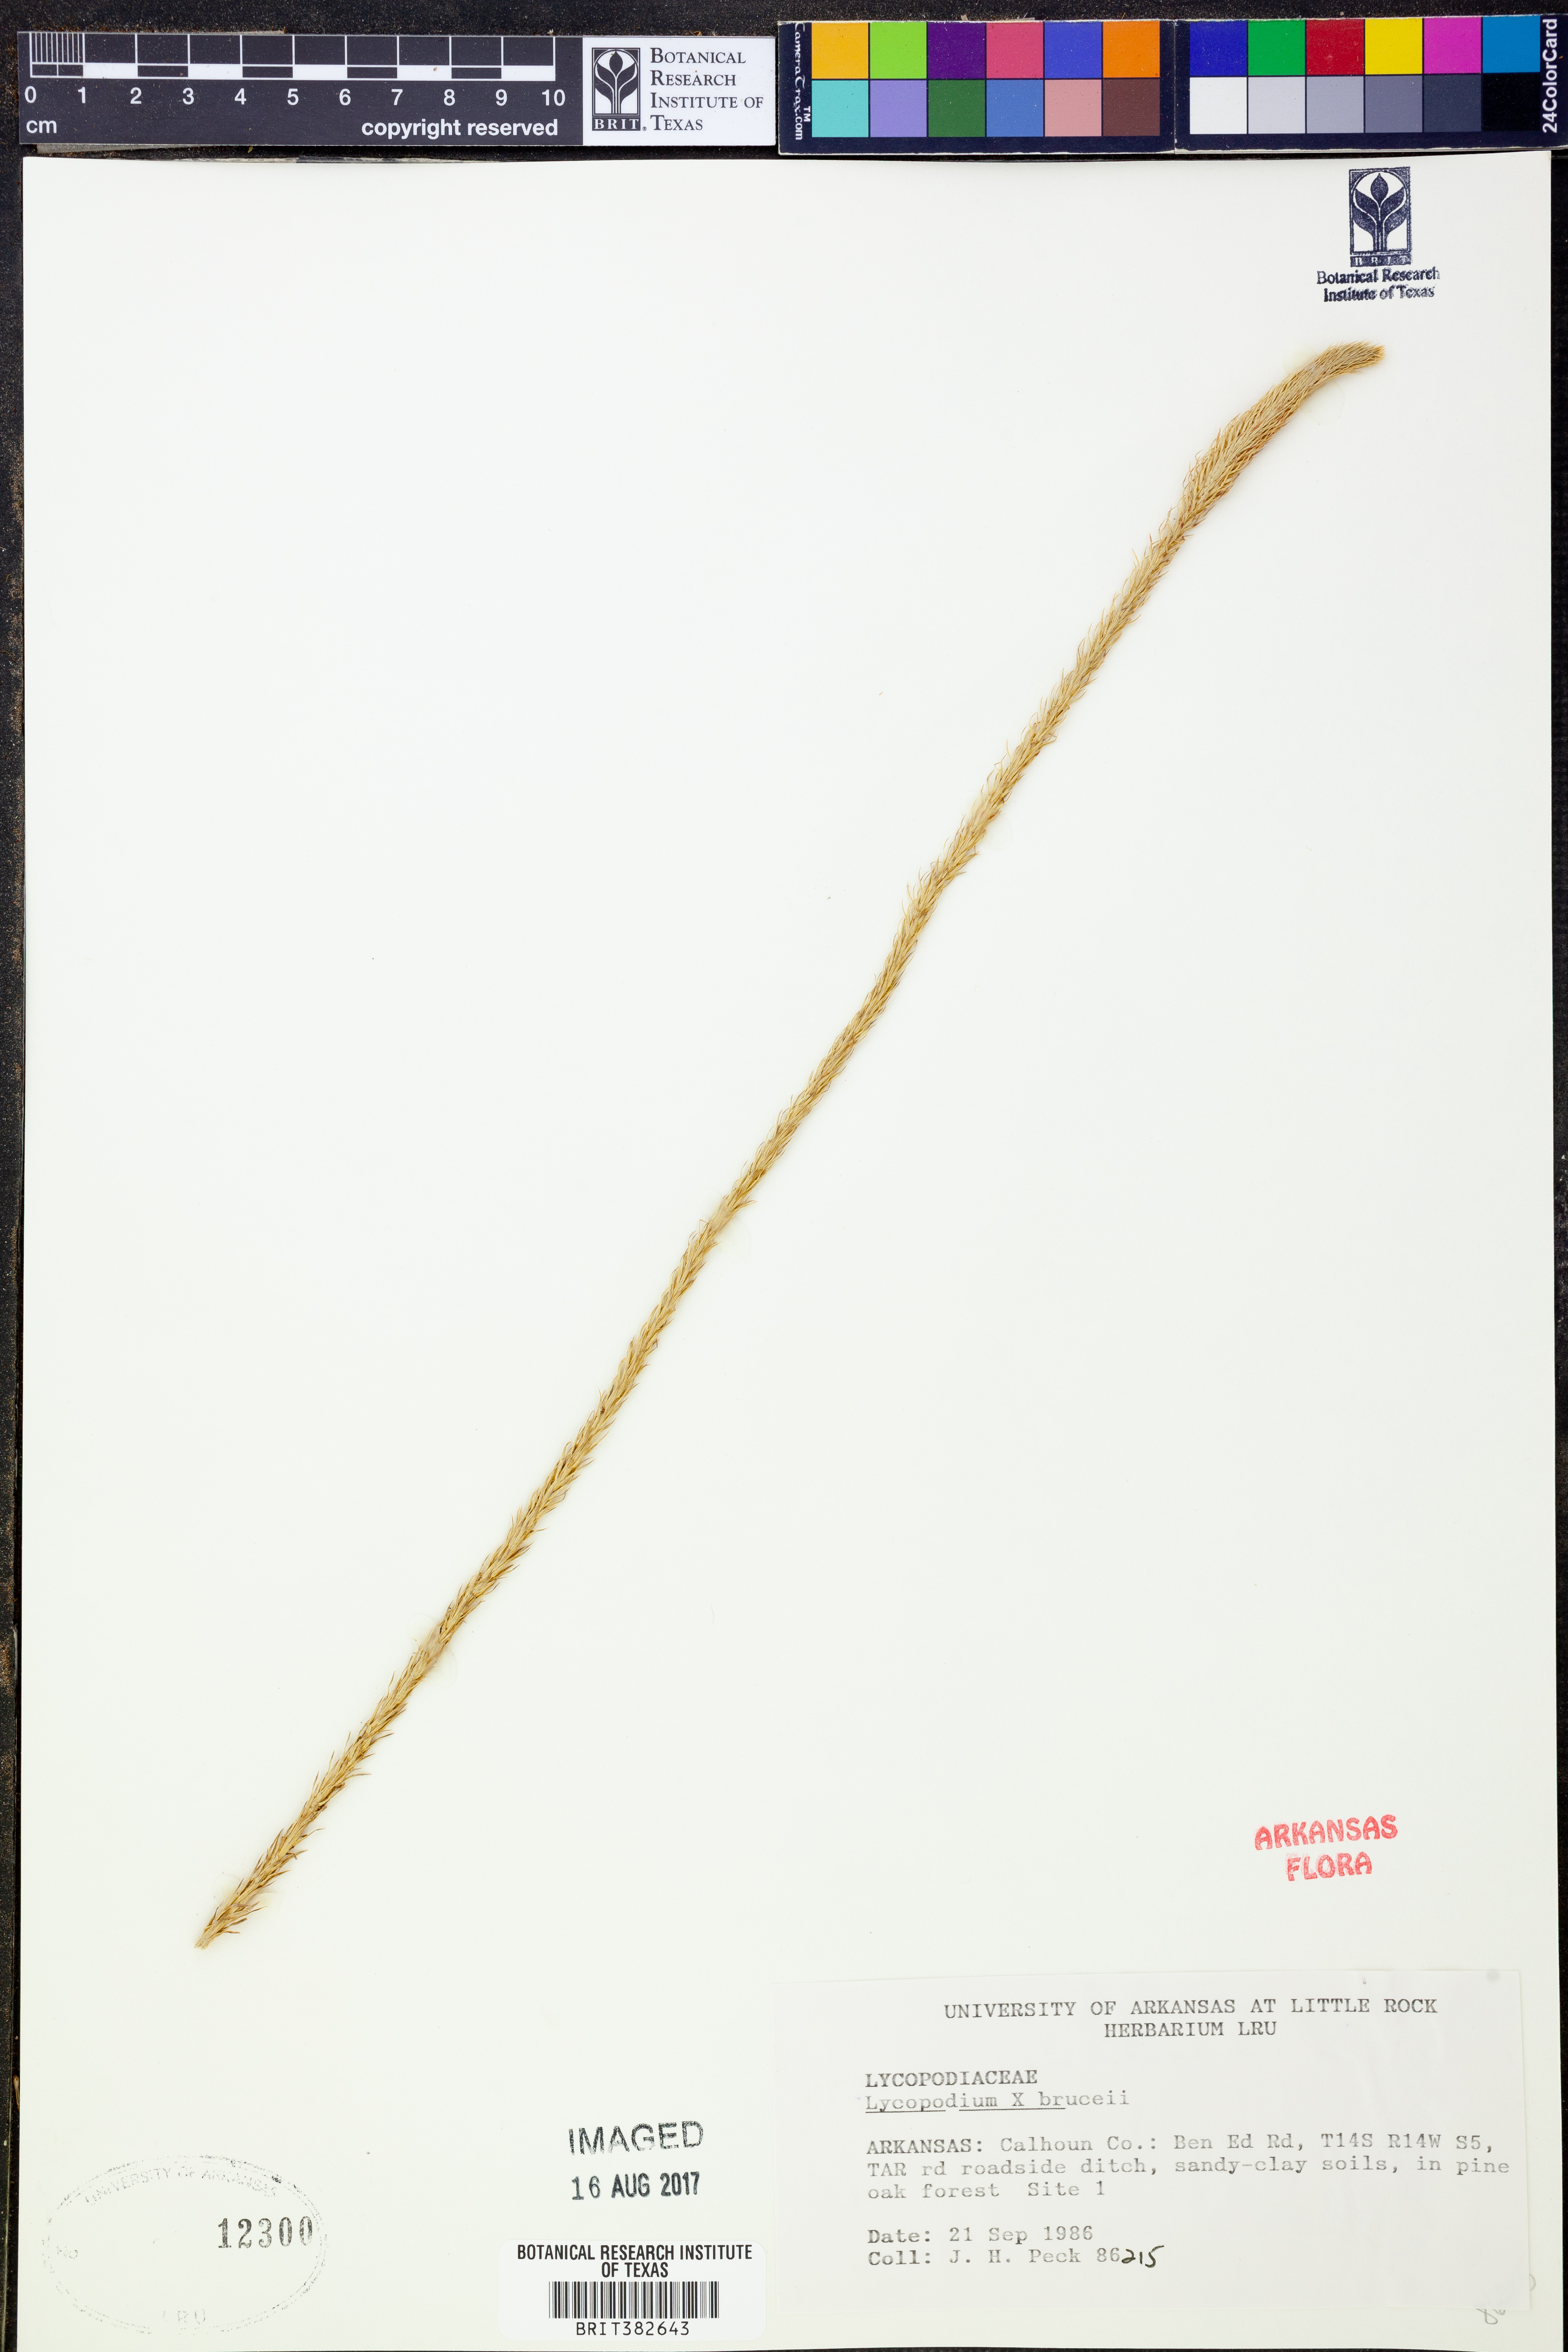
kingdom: Plantae
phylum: Tracheophyta
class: Lycopodiopsida
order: Lycopodiales
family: Lycopodiaceae
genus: Lycopodiella
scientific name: Lycopodiella brucei
